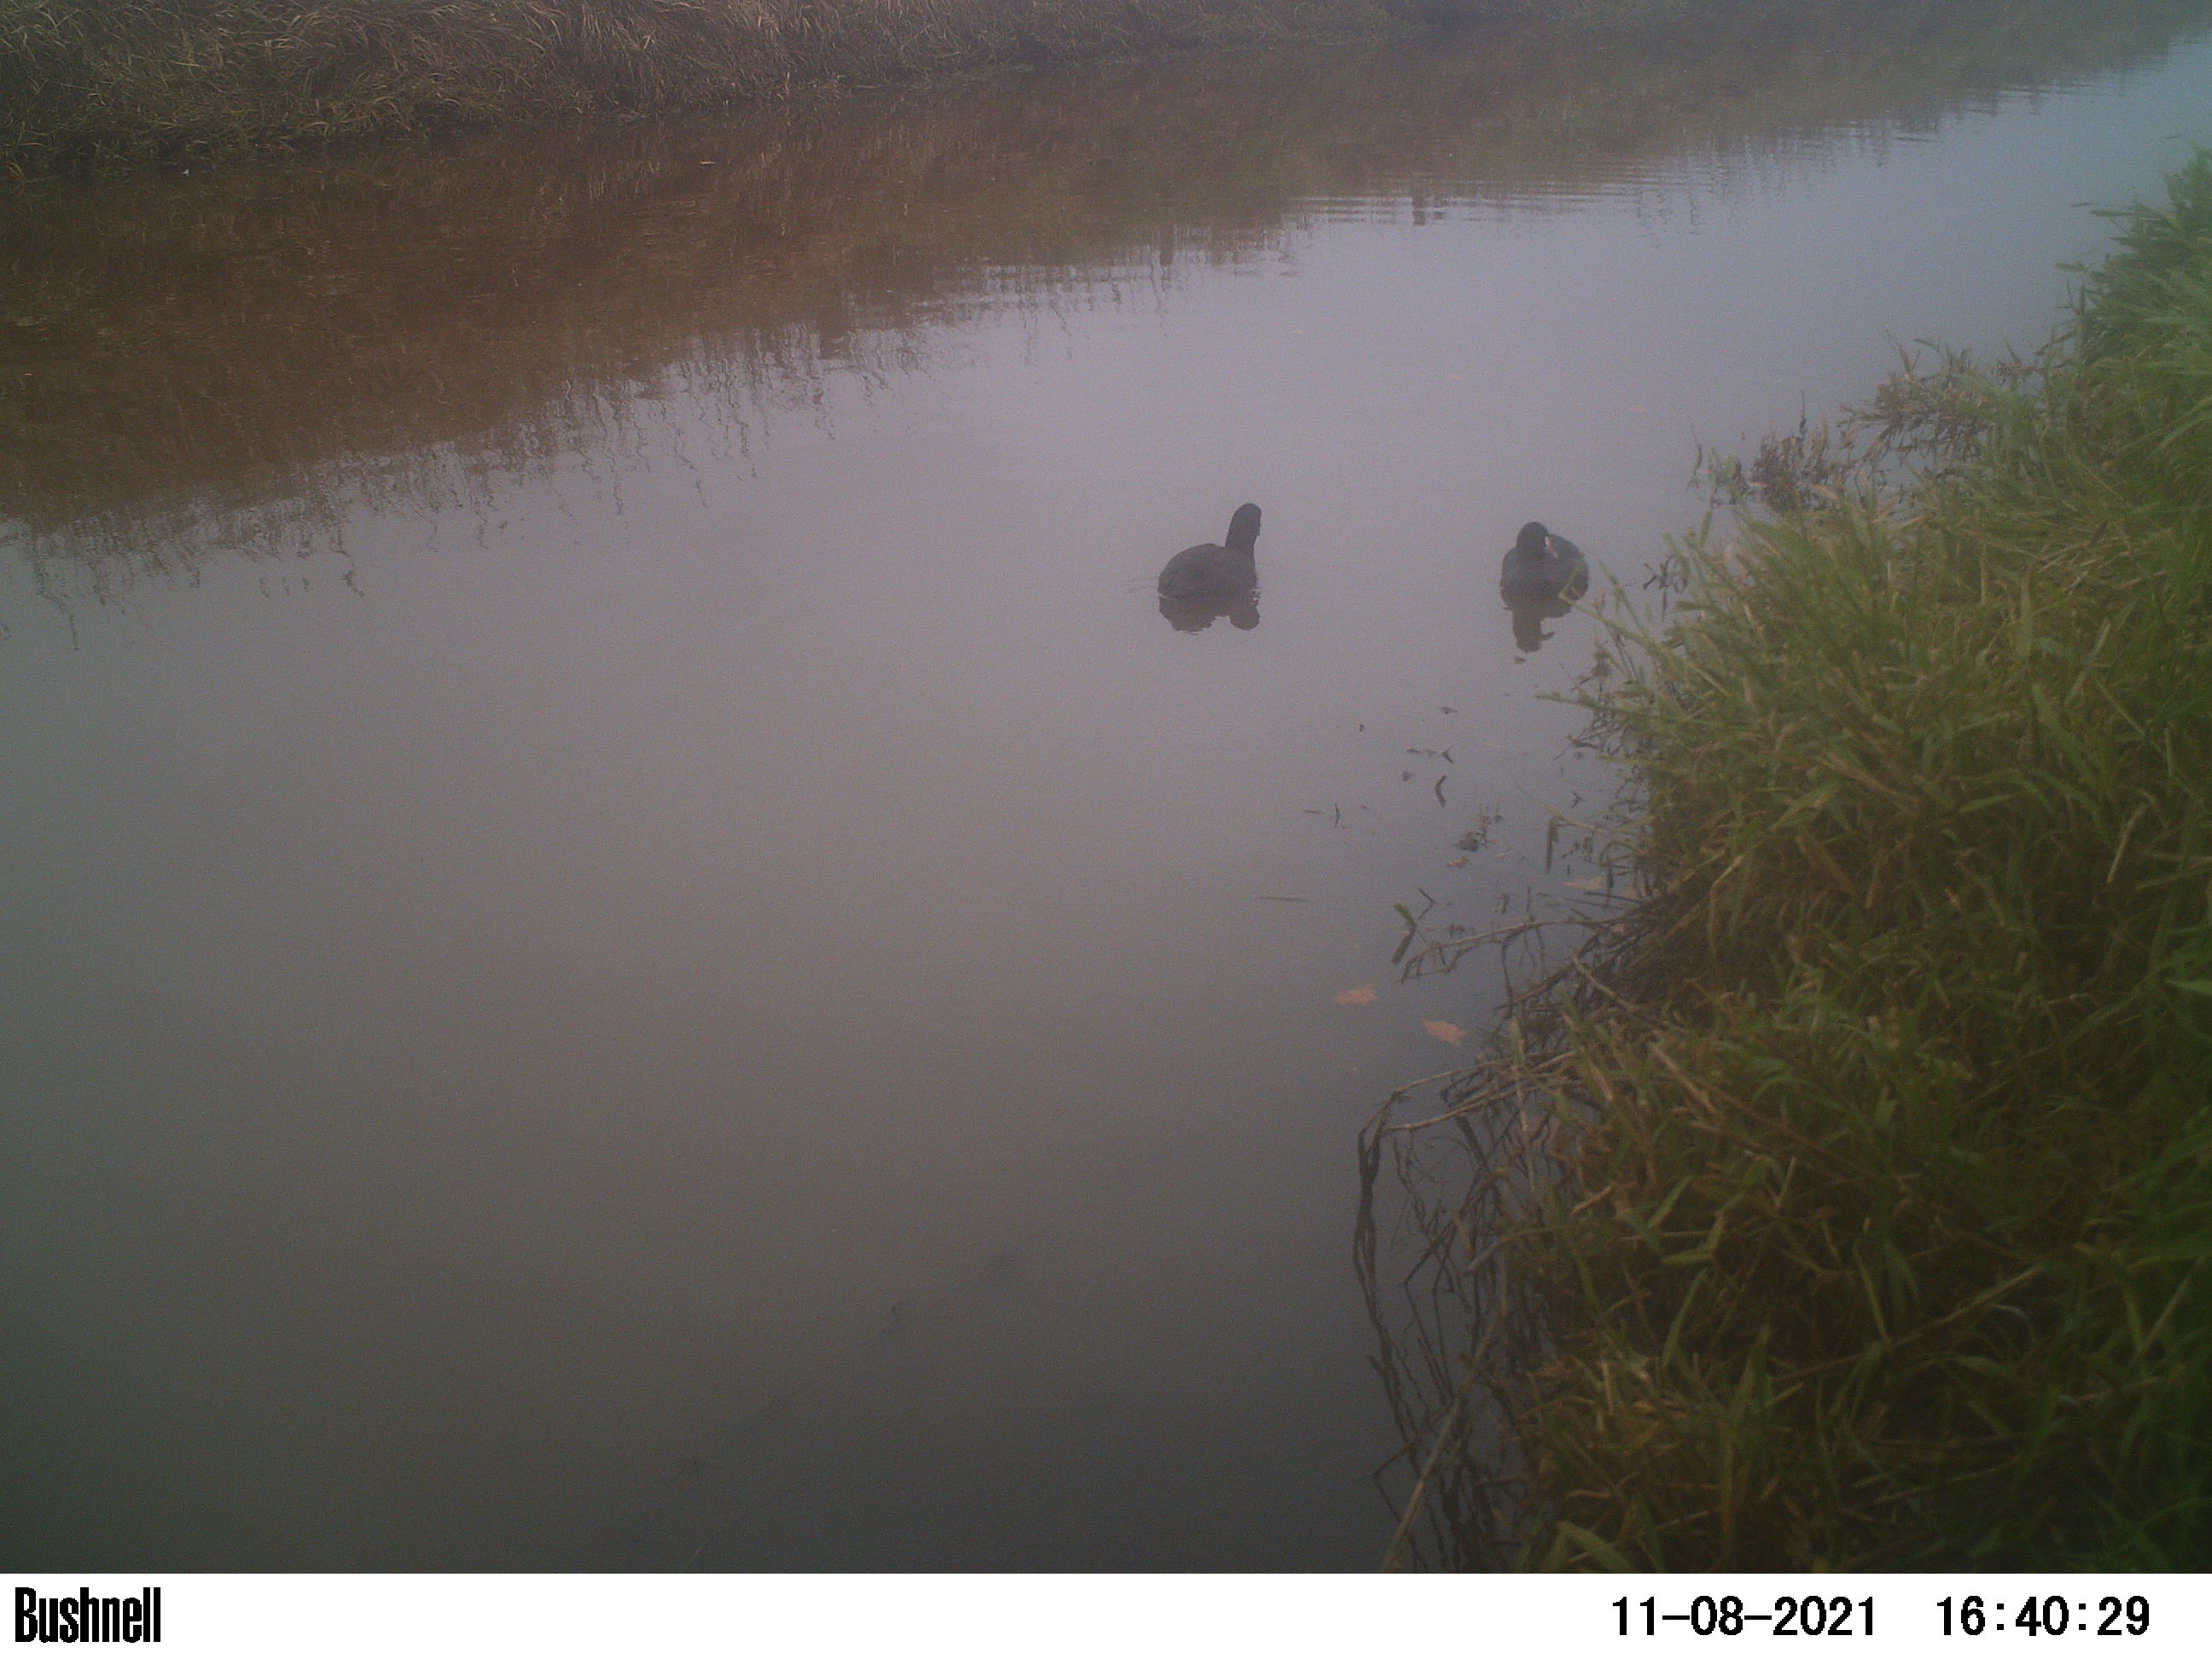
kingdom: Animalia
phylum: Chordata
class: Aves
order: Gruiformes
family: Rallidae
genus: Fulica
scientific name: Fulica atra
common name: Eurasian coot
